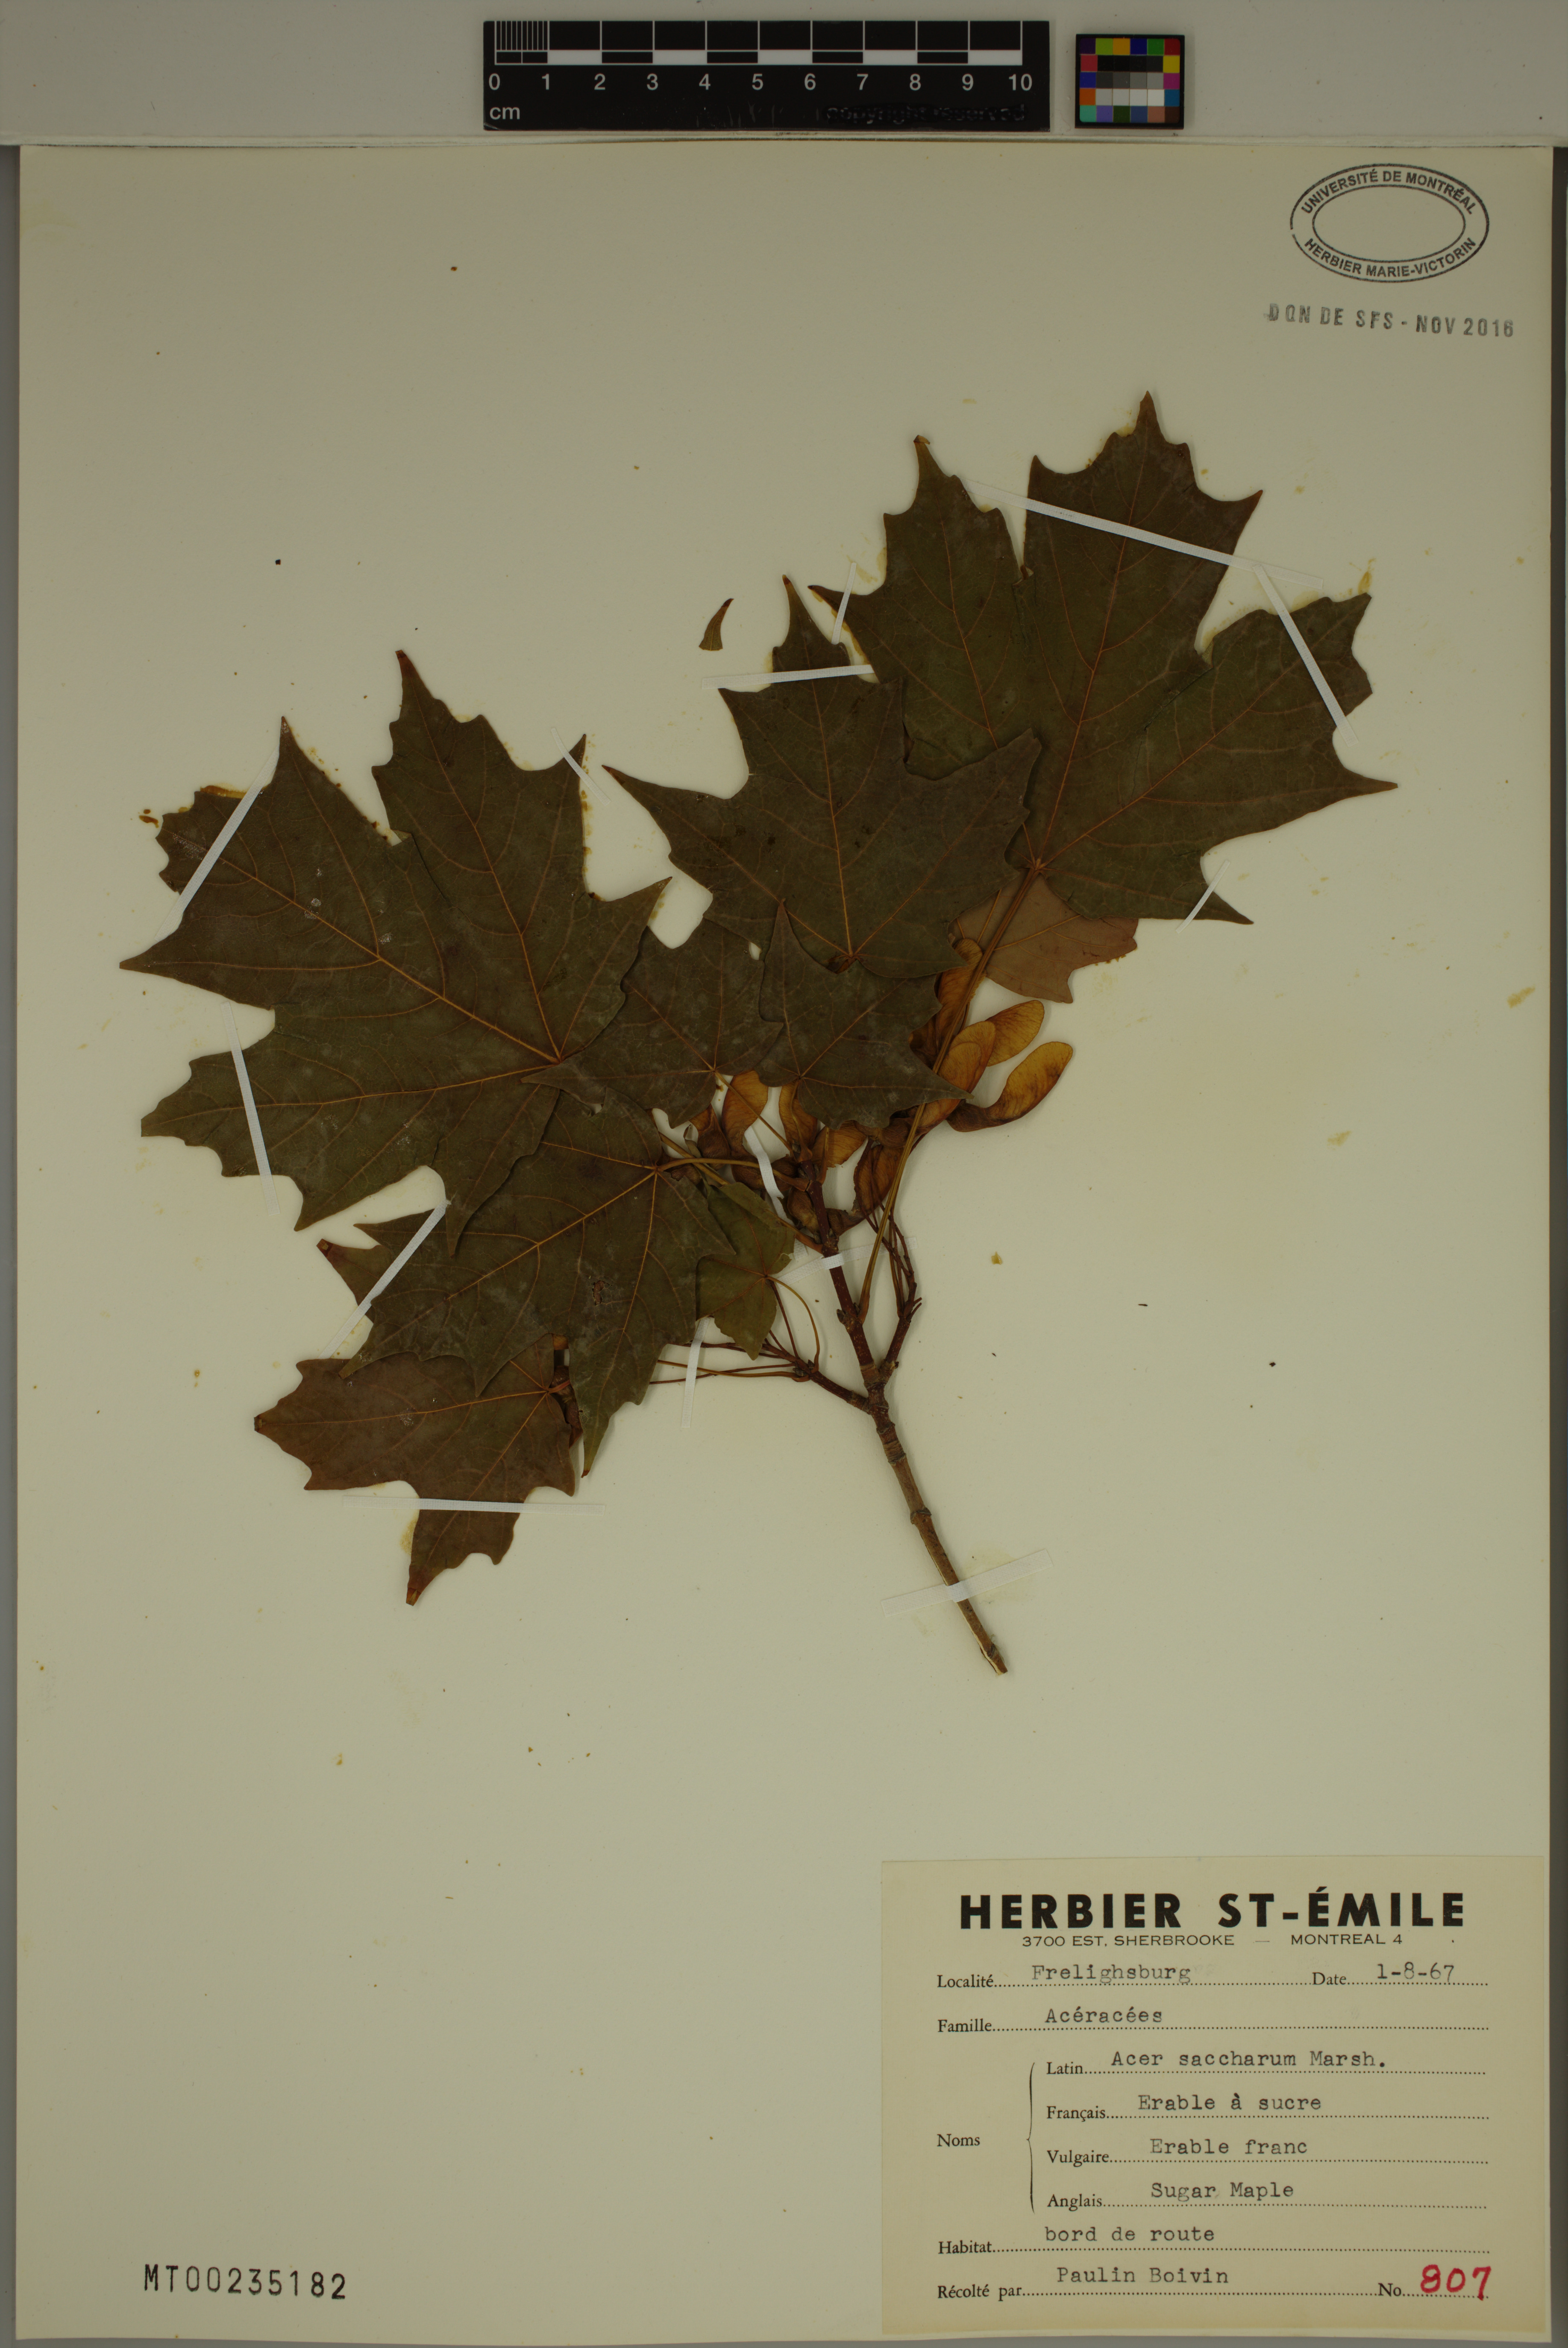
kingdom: Plantae
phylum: Tracheophyta
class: Magnoliopsida
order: Sapindales
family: Sapindaceae
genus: Acer
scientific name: Acer saccharum
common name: Sugar maple
